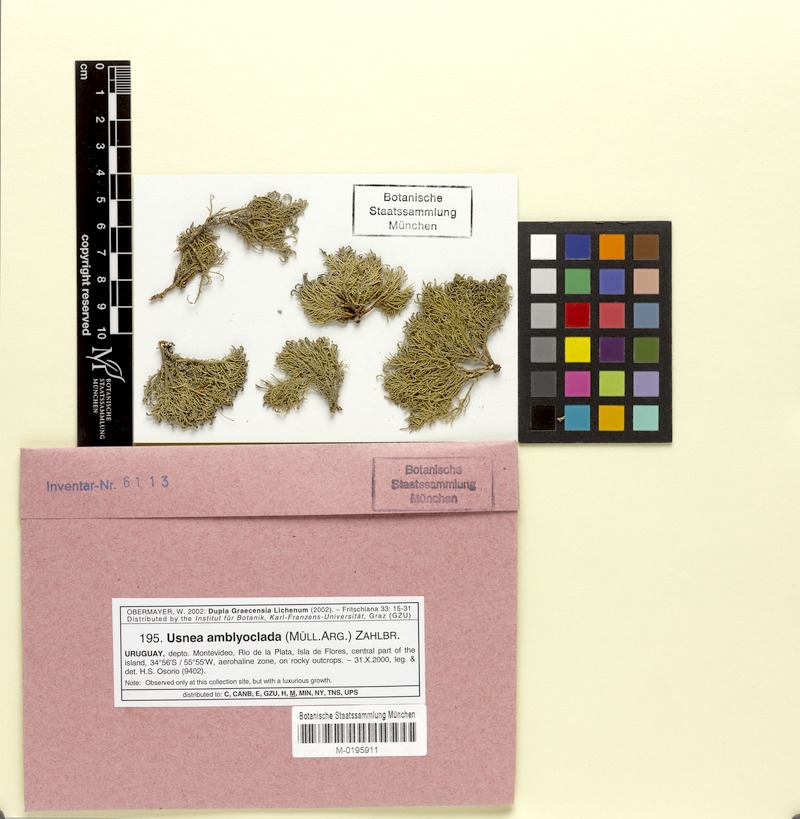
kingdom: Fungi
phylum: Ascomycota
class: Lecanoromycetes
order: Lecanorales
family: Parmeliaceae
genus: Usnea
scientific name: Usnea amblyoclada
